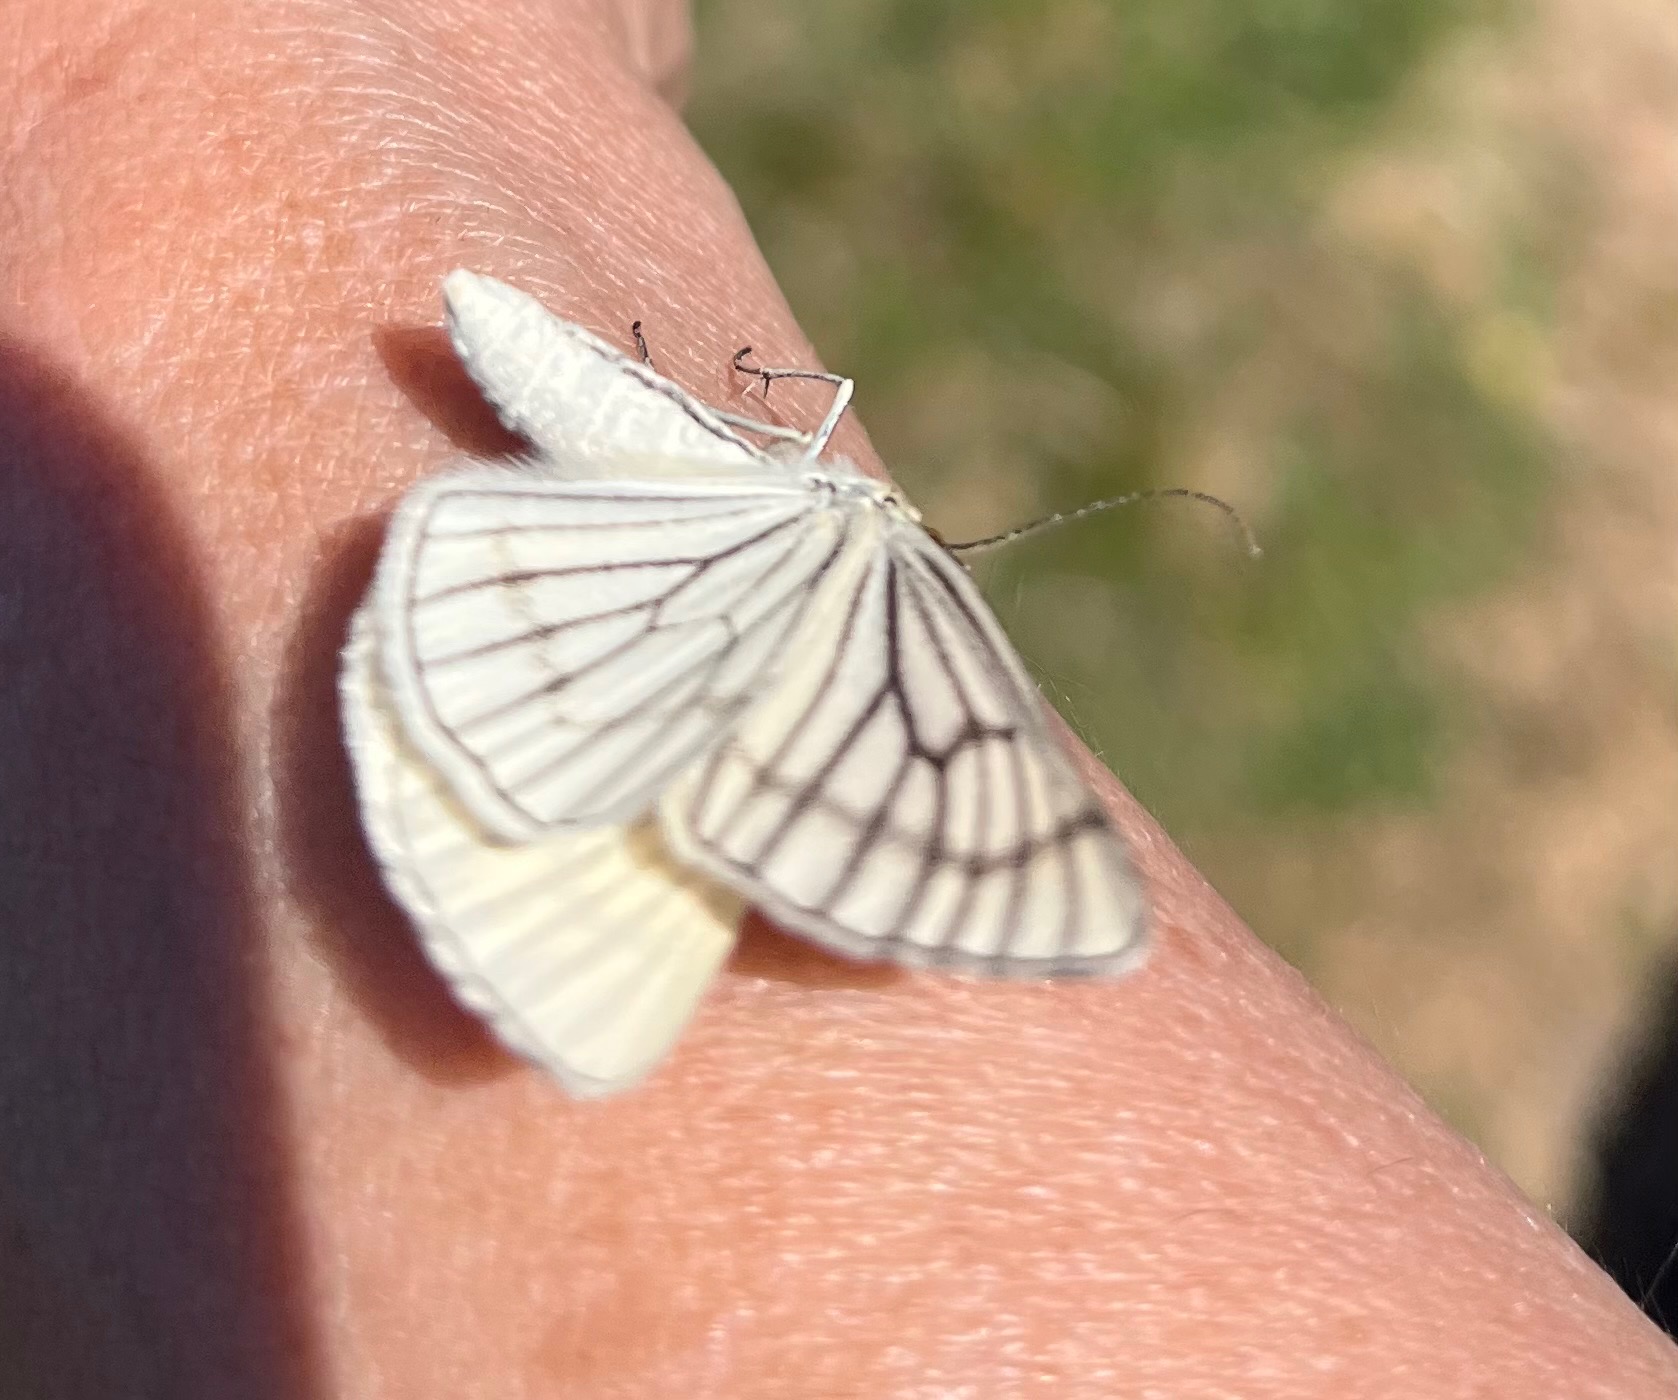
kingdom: Animalia
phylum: Arthropoda
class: Insecta
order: Lepidoptera
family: Geometridae
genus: Siona
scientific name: Siona lineata
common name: Hvidvingemåler
